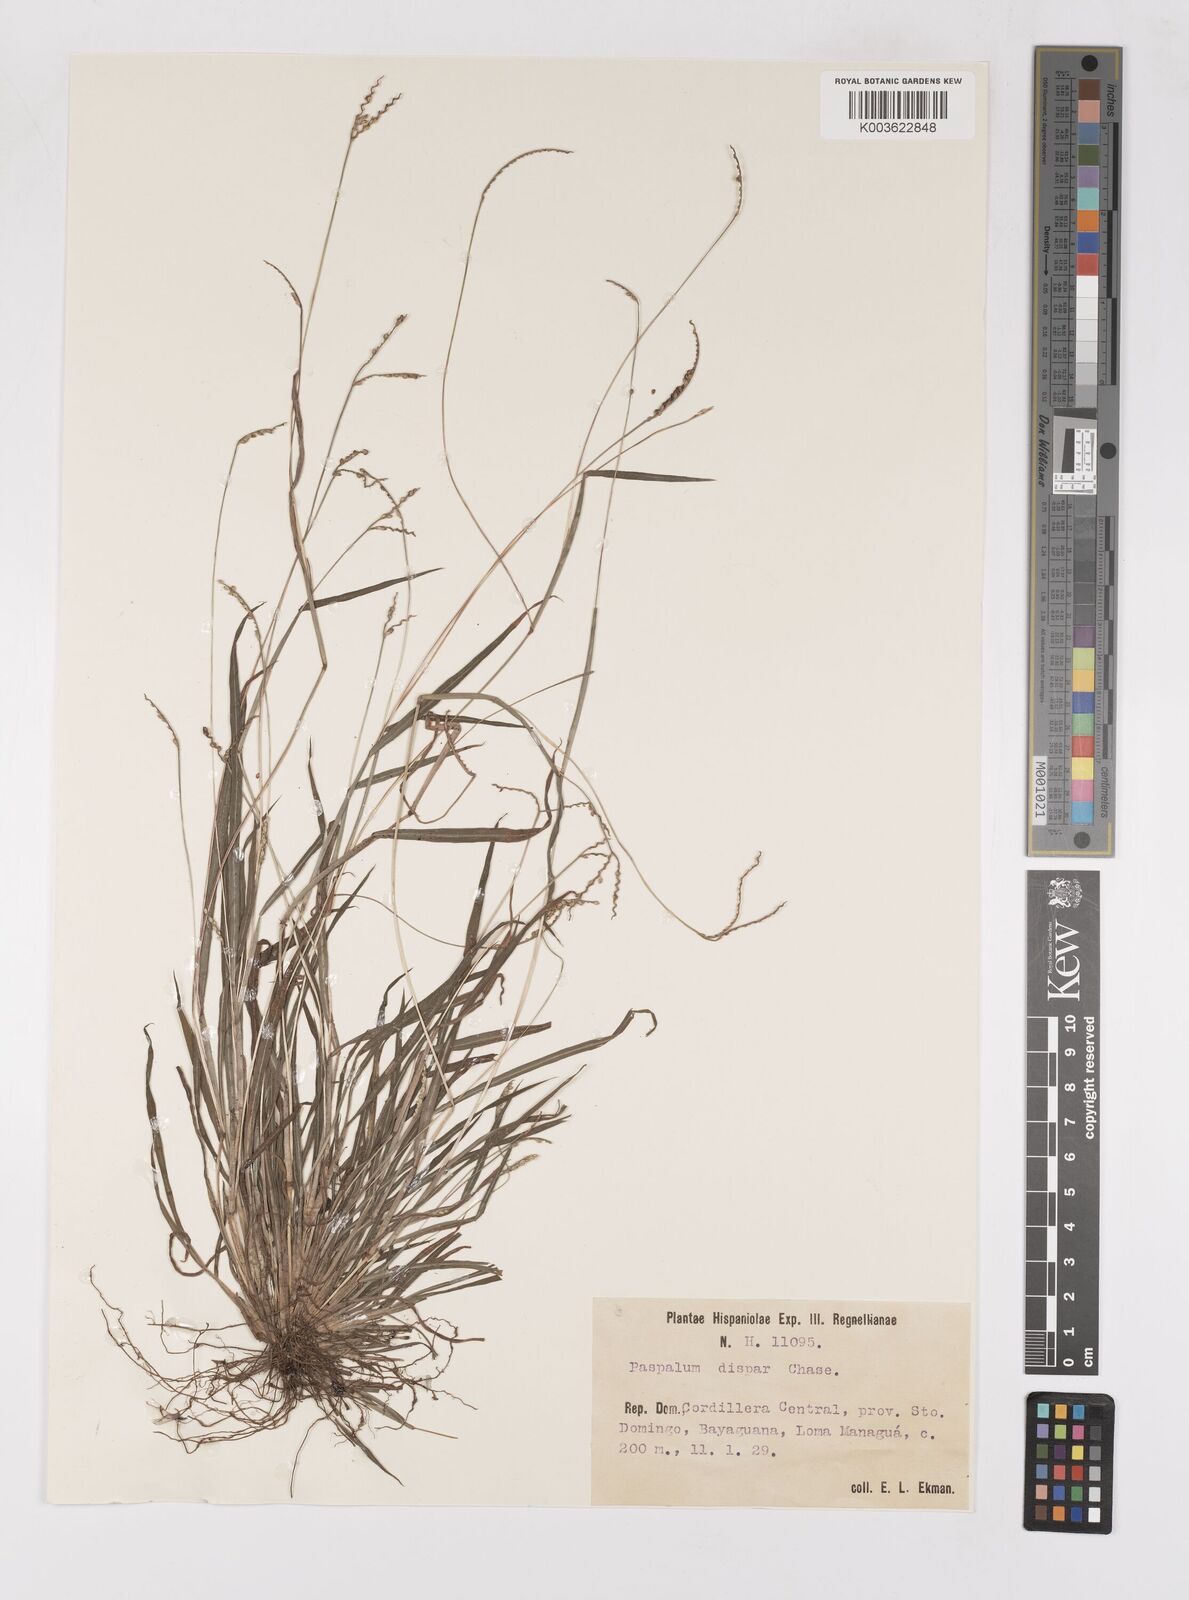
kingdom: Plantae
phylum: Tracheophyta
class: Liliopsida
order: Poales
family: Poaceae
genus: Paspalum
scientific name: Paspalum dispar
